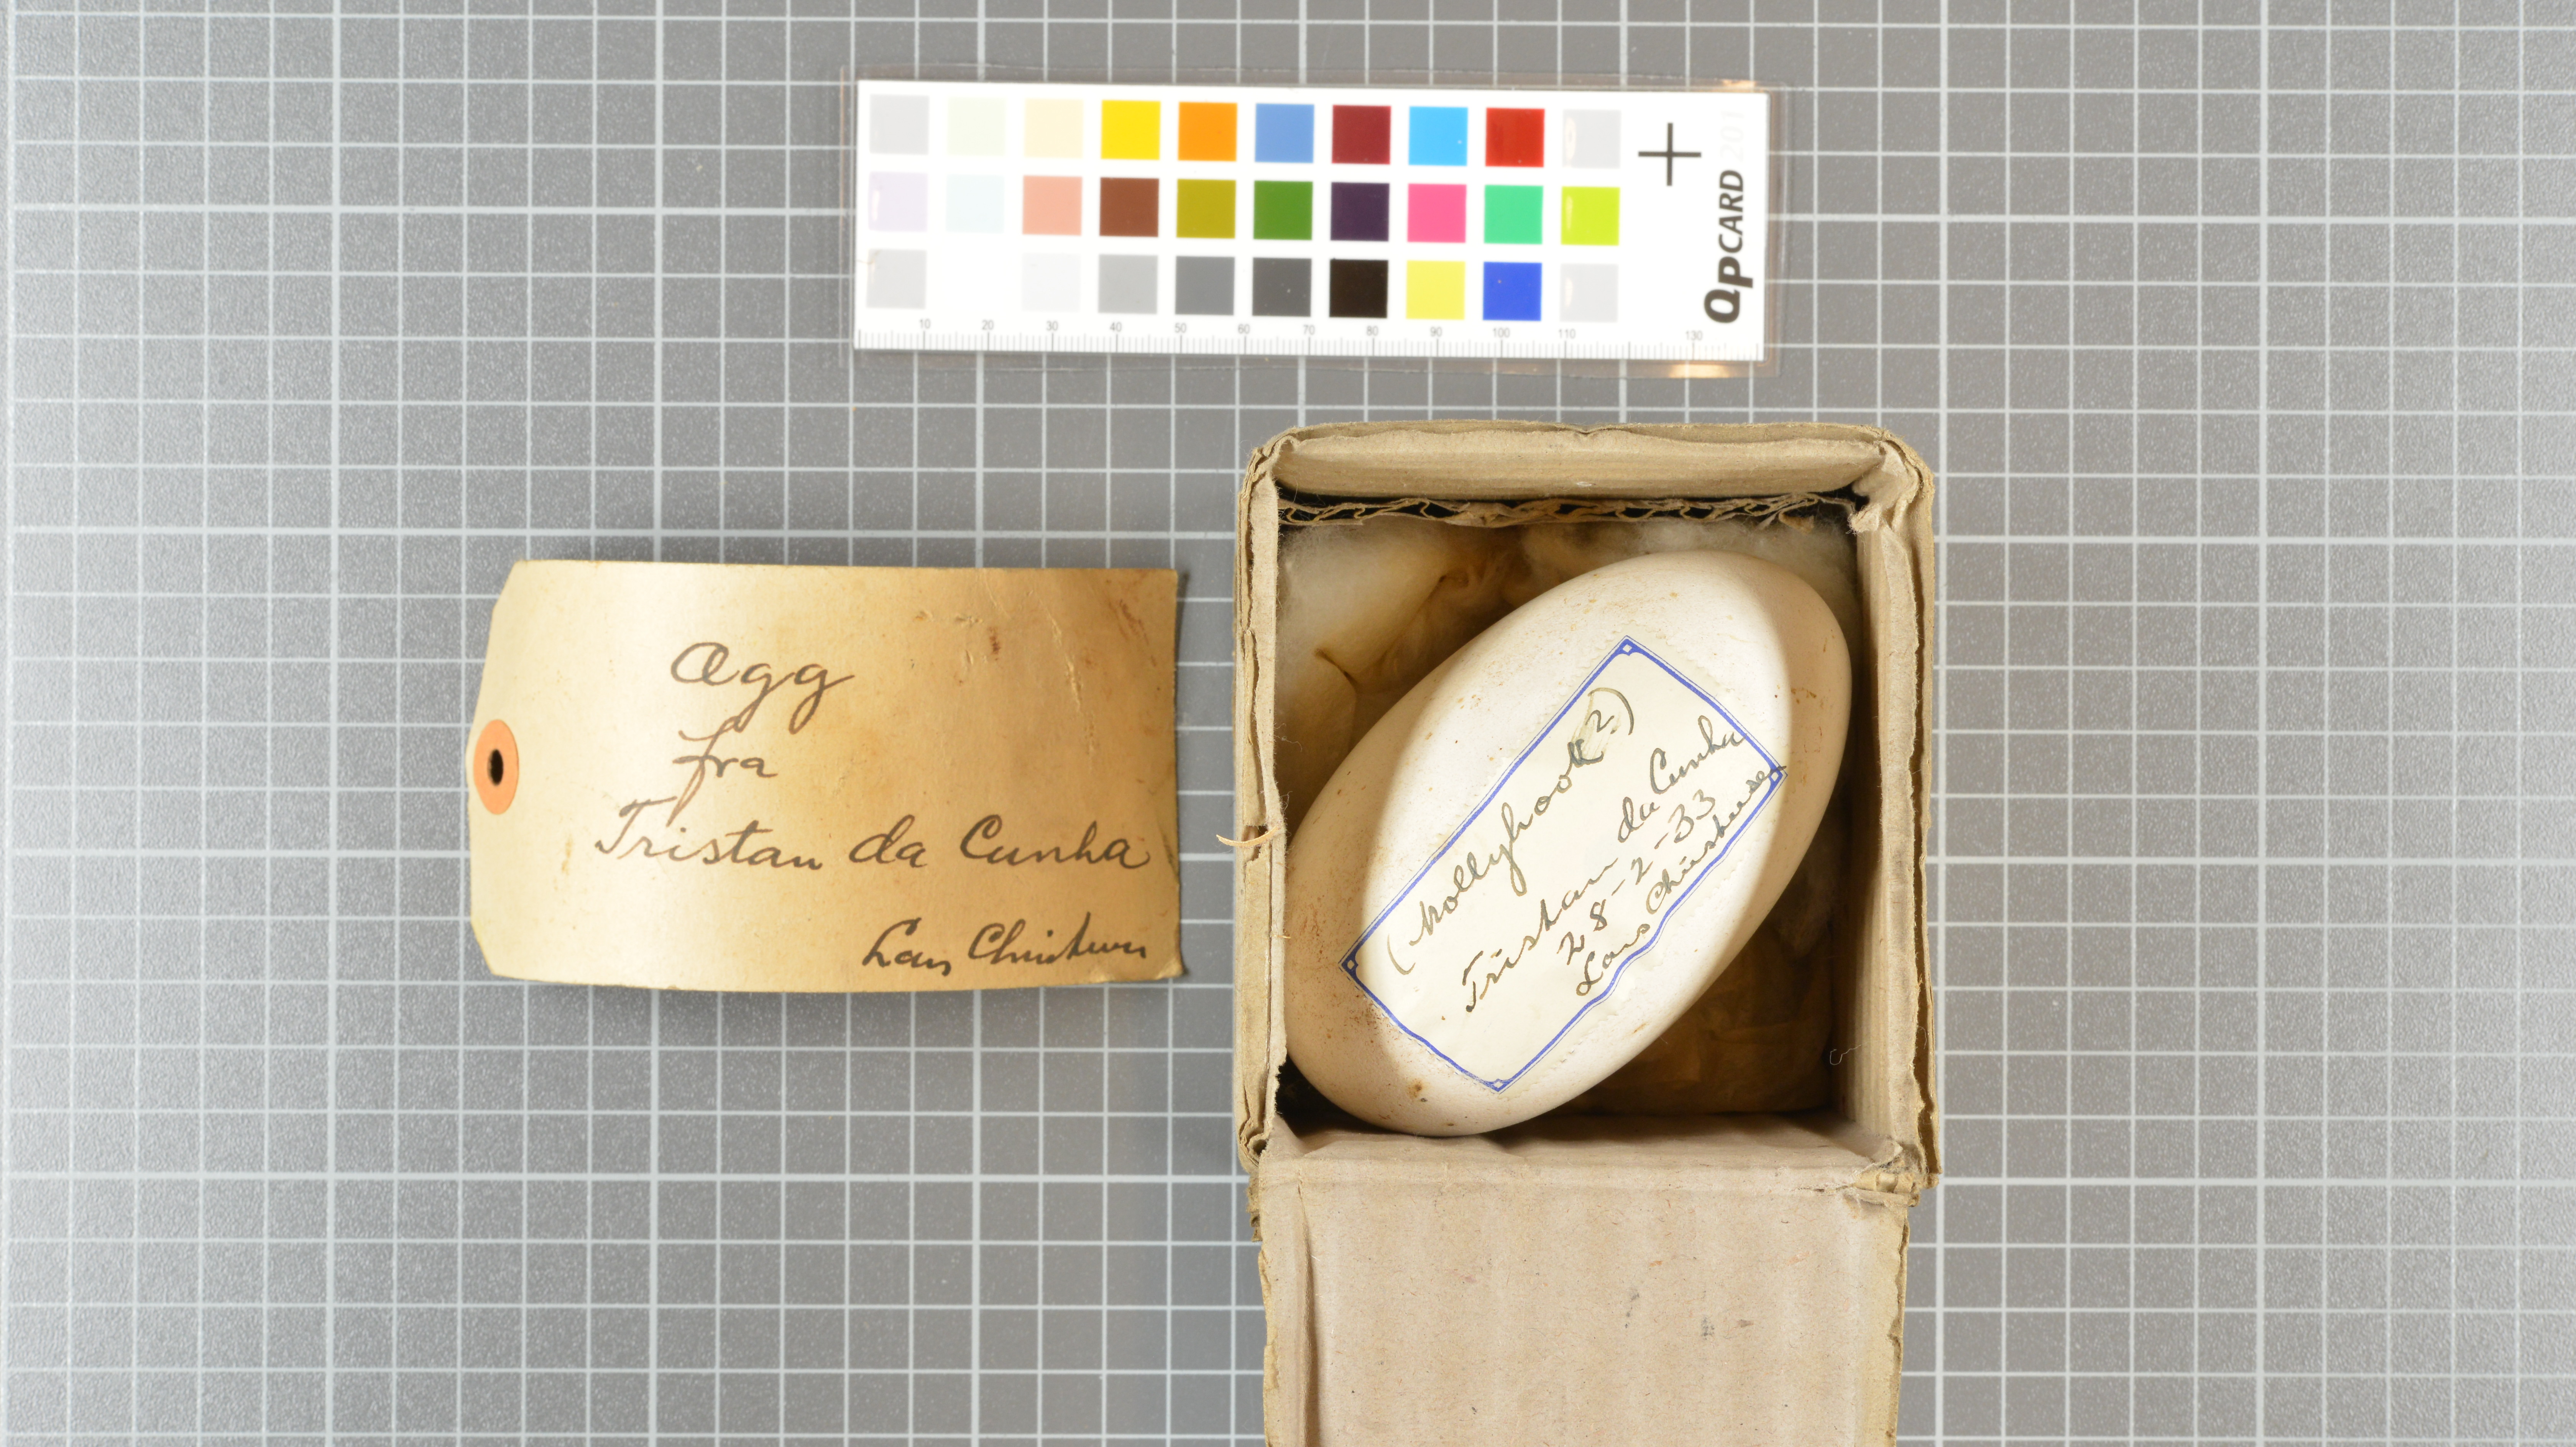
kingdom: Animalia
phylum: Chordata
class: Aves
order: Procellariiformes
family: Diomedeidae
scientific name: Diomedeidae
